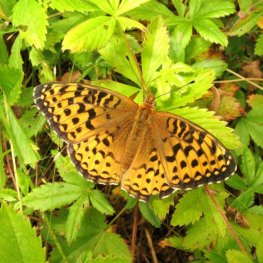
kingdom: Animalia
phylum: Arthropoda
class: Insecta
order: Lepidoptera
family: Nymphalidae
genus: Speyeria
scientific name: Speyeria atlantis
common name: Atlantis Fritillary
